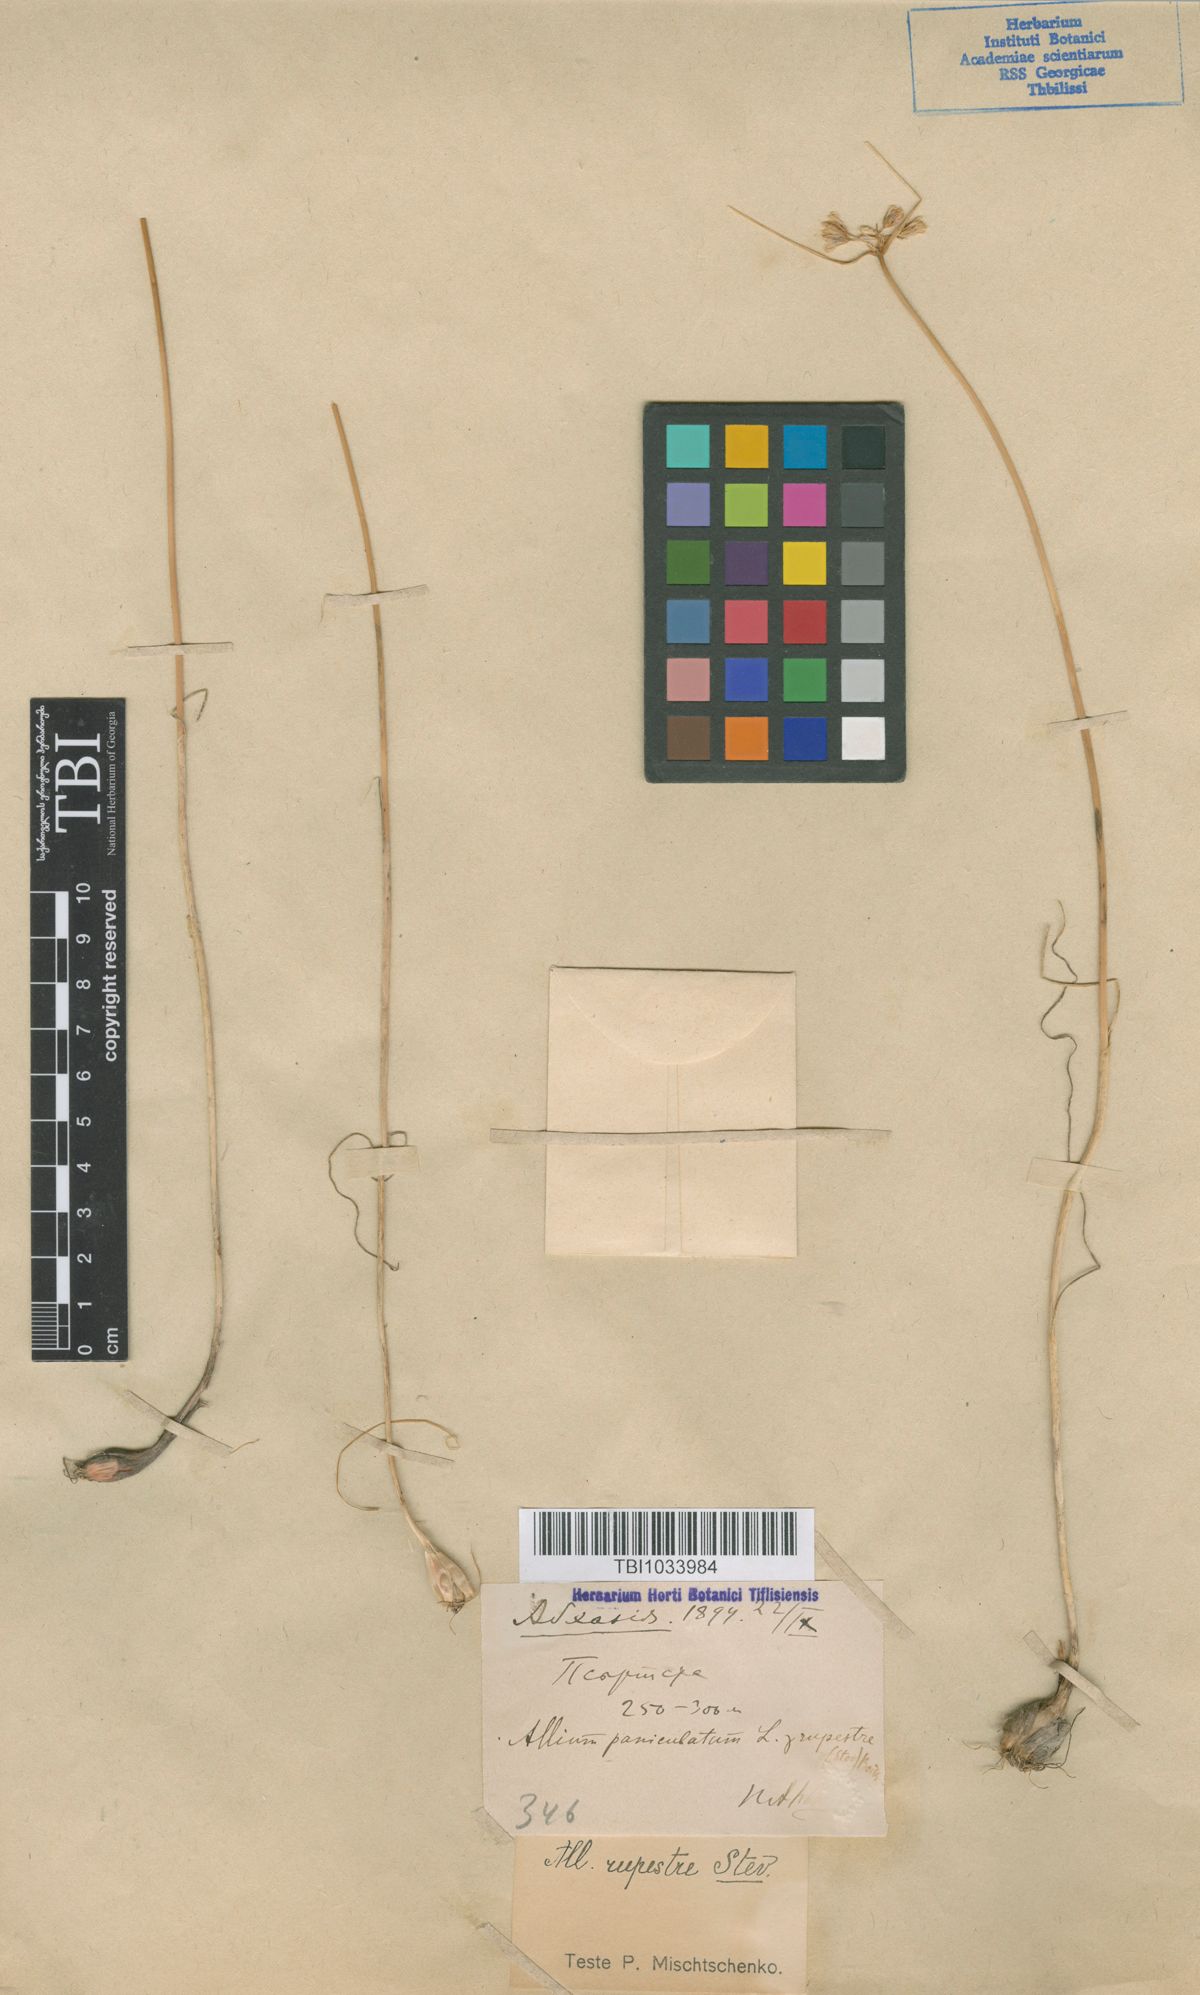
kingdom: Plantae
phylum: Tracheophyta
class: Liliopsida
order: Asparagales
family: Amaryllidaceae
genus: Allium
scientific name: Allium rupestre
